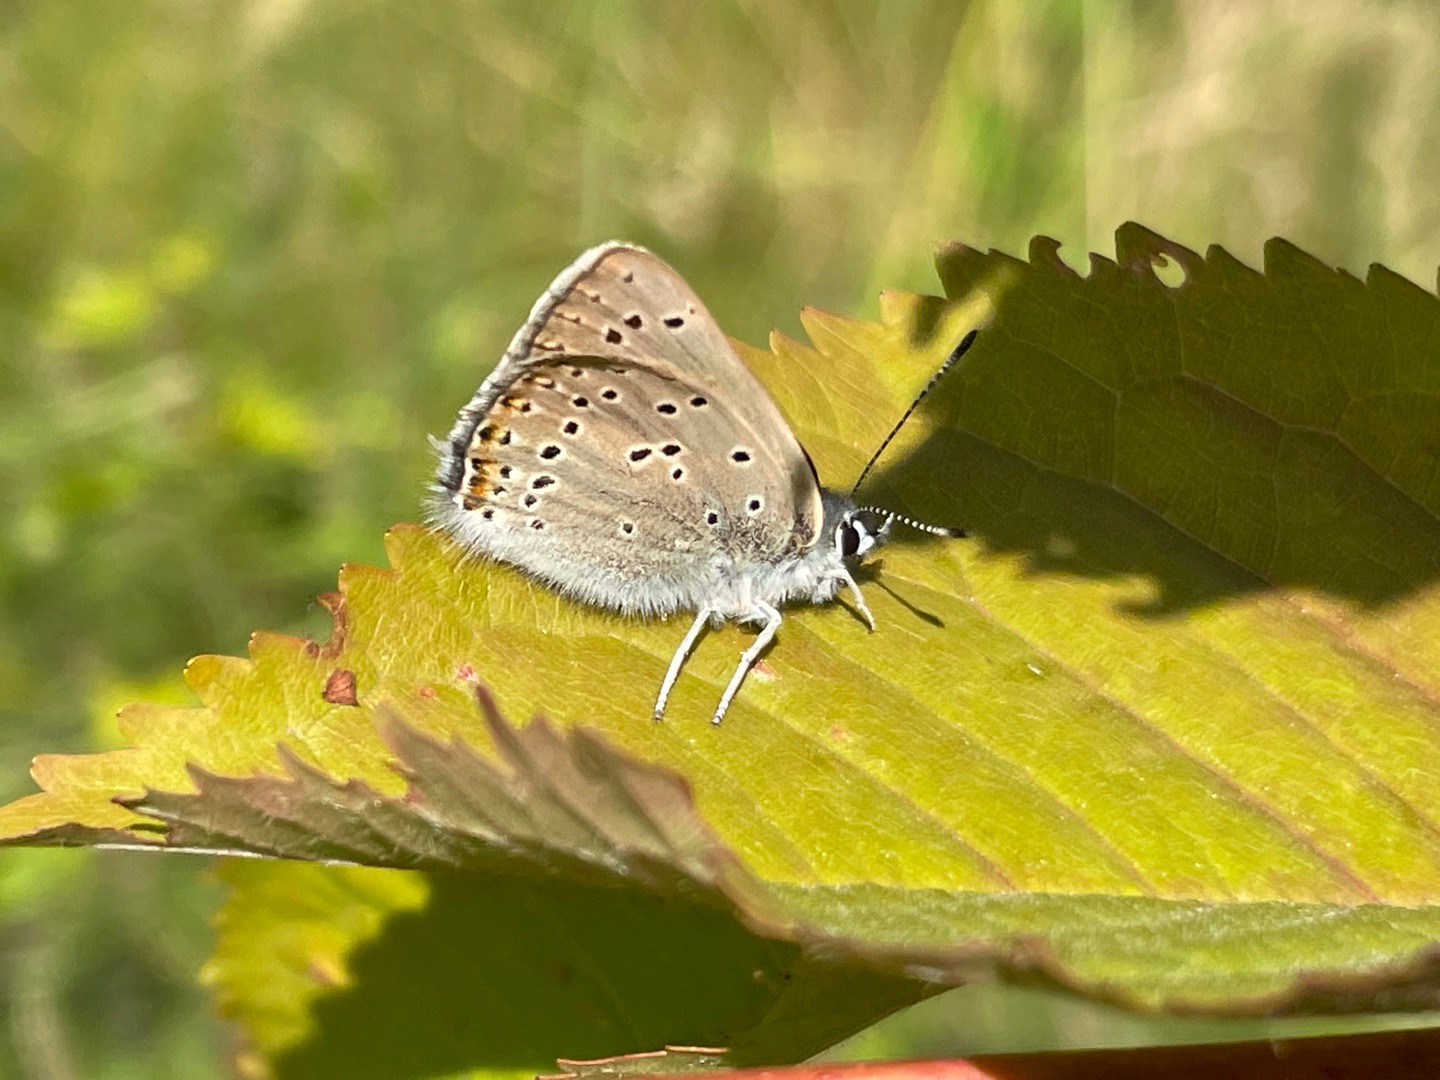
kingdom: Animalia
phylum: Arthropoda
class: Insecta
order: Lepidoptera
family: Lycaenidae
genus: Palaeochrysophanus
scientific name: Palaeochrysophanus hippothoe
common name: Violetrandet ildfugl
